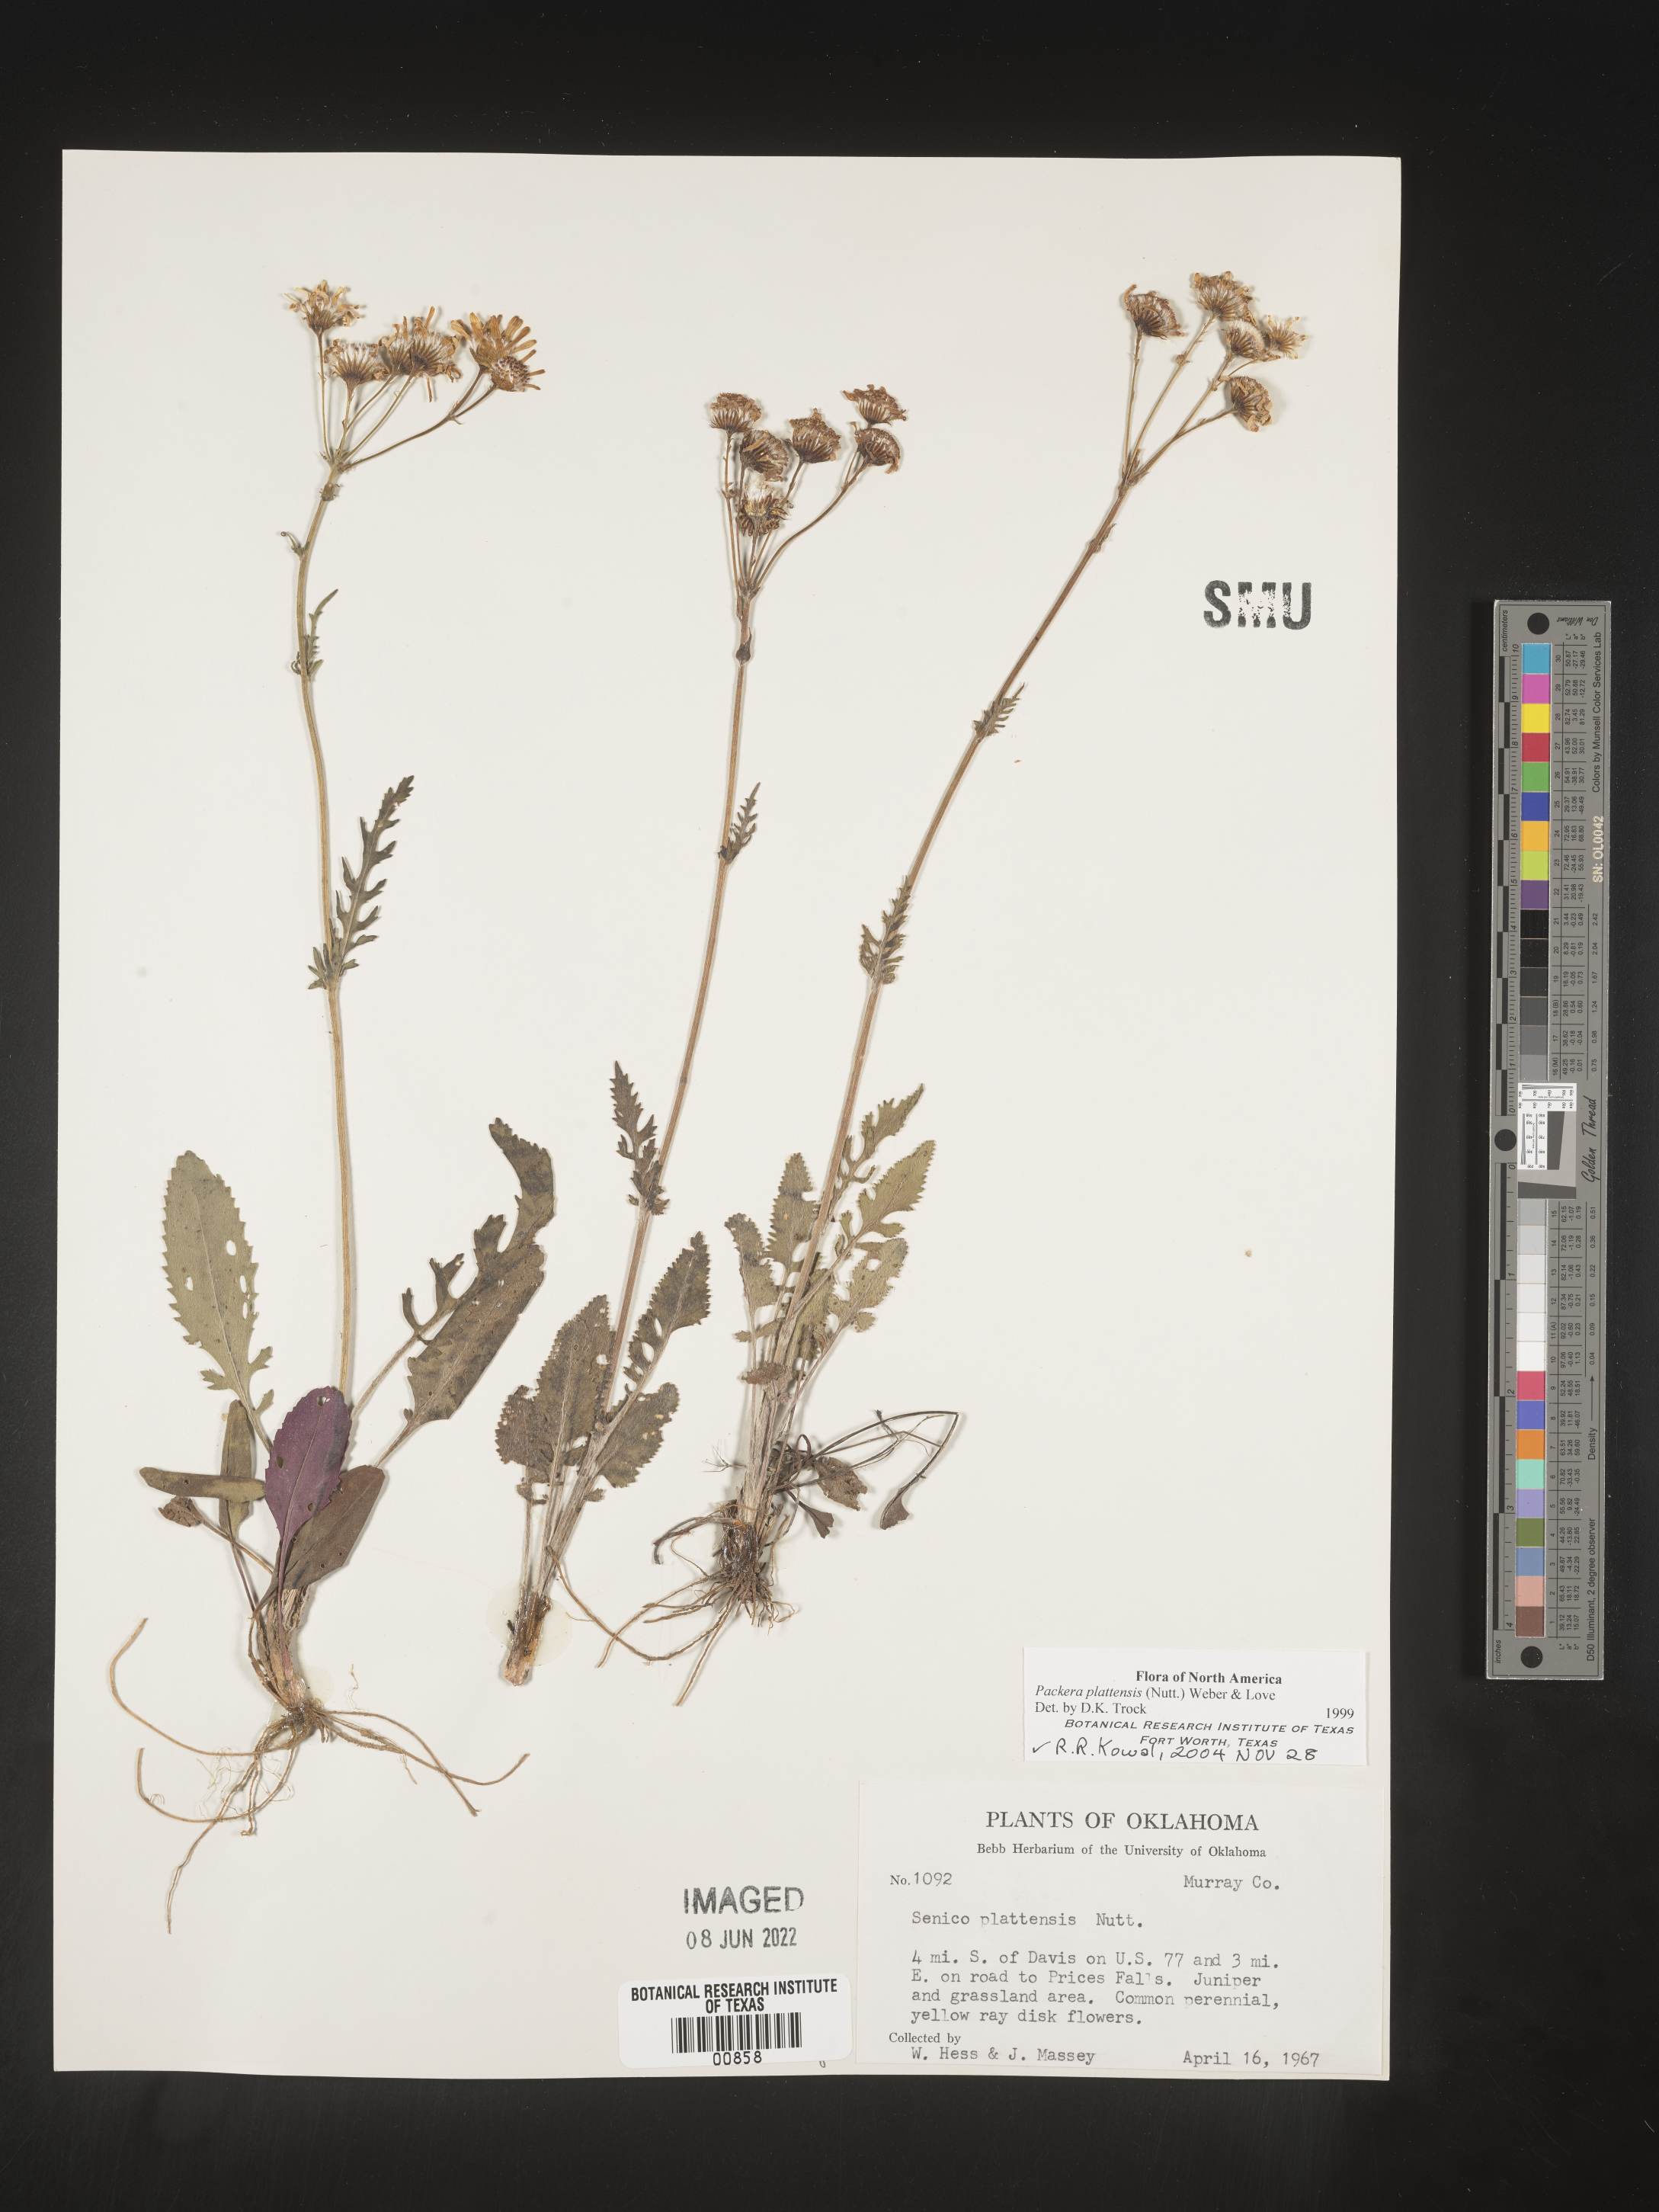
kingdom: Plantae
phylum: Tracheophyta
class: Magnoliopsida
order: Asterales
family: Asteraceae
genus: Packera
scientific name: Packera plattensis
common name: Prairie groundsel
